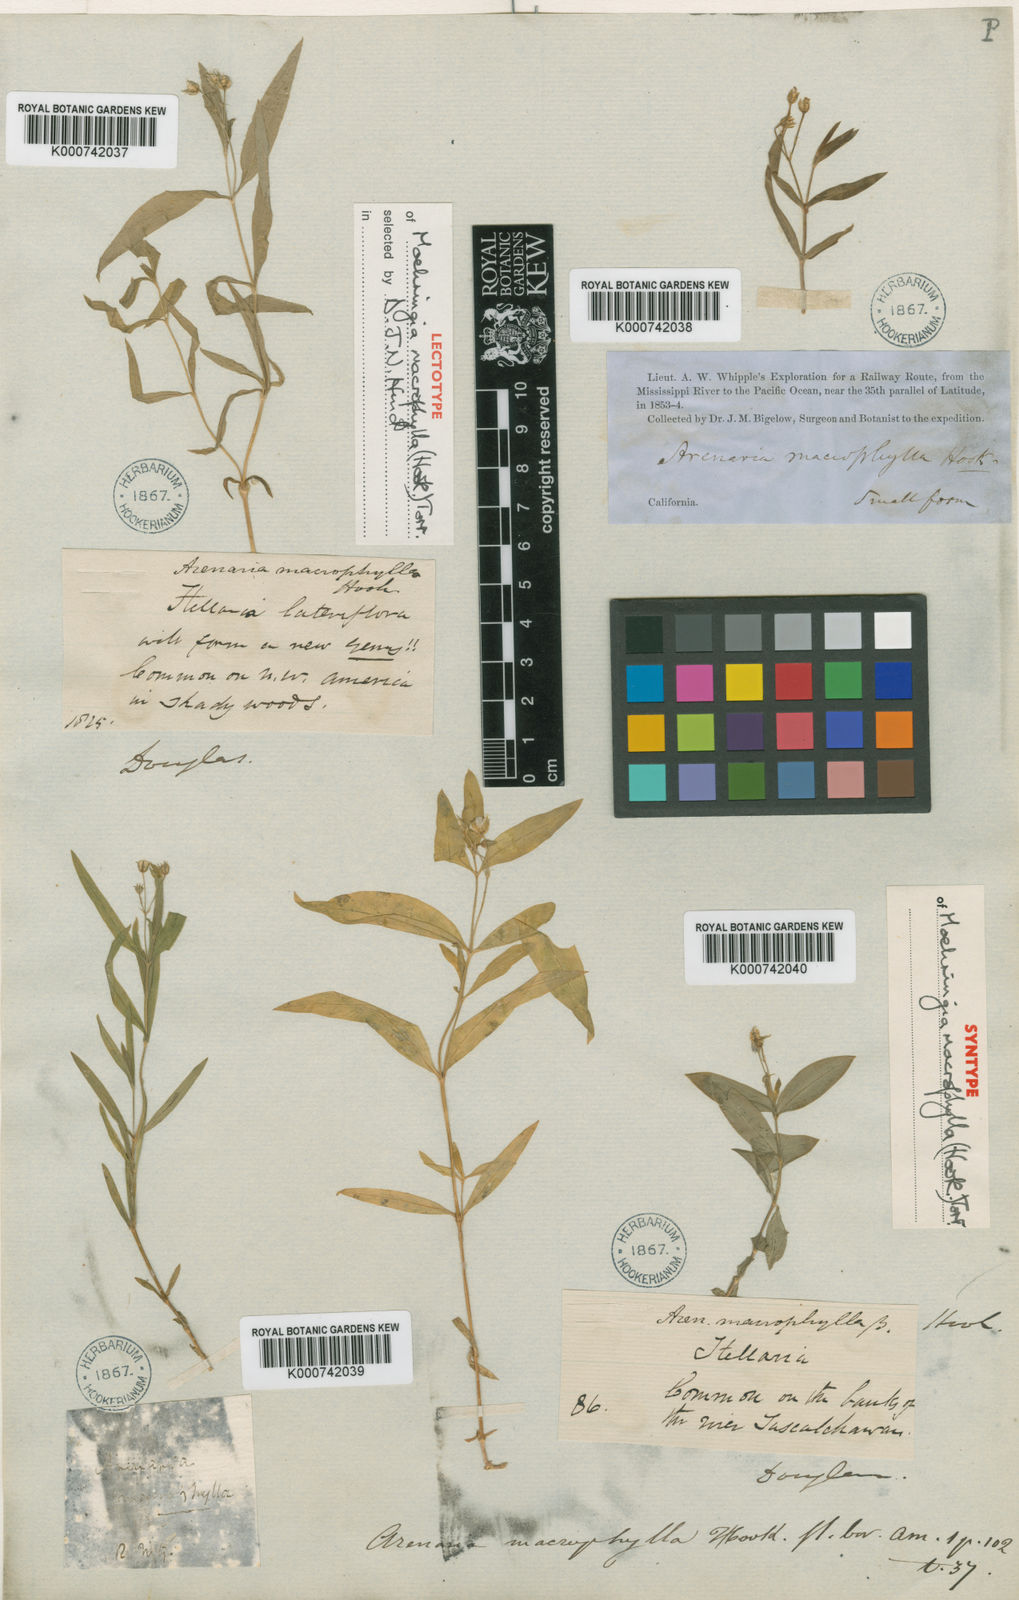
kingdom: Plantae
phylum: Tracheophyta
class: Magnoliopsida
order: Caryophyllales
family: Caryophyllaceae
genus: Moehringia
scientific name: Moehringia macrophylla
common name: Big-leaf sandwort
